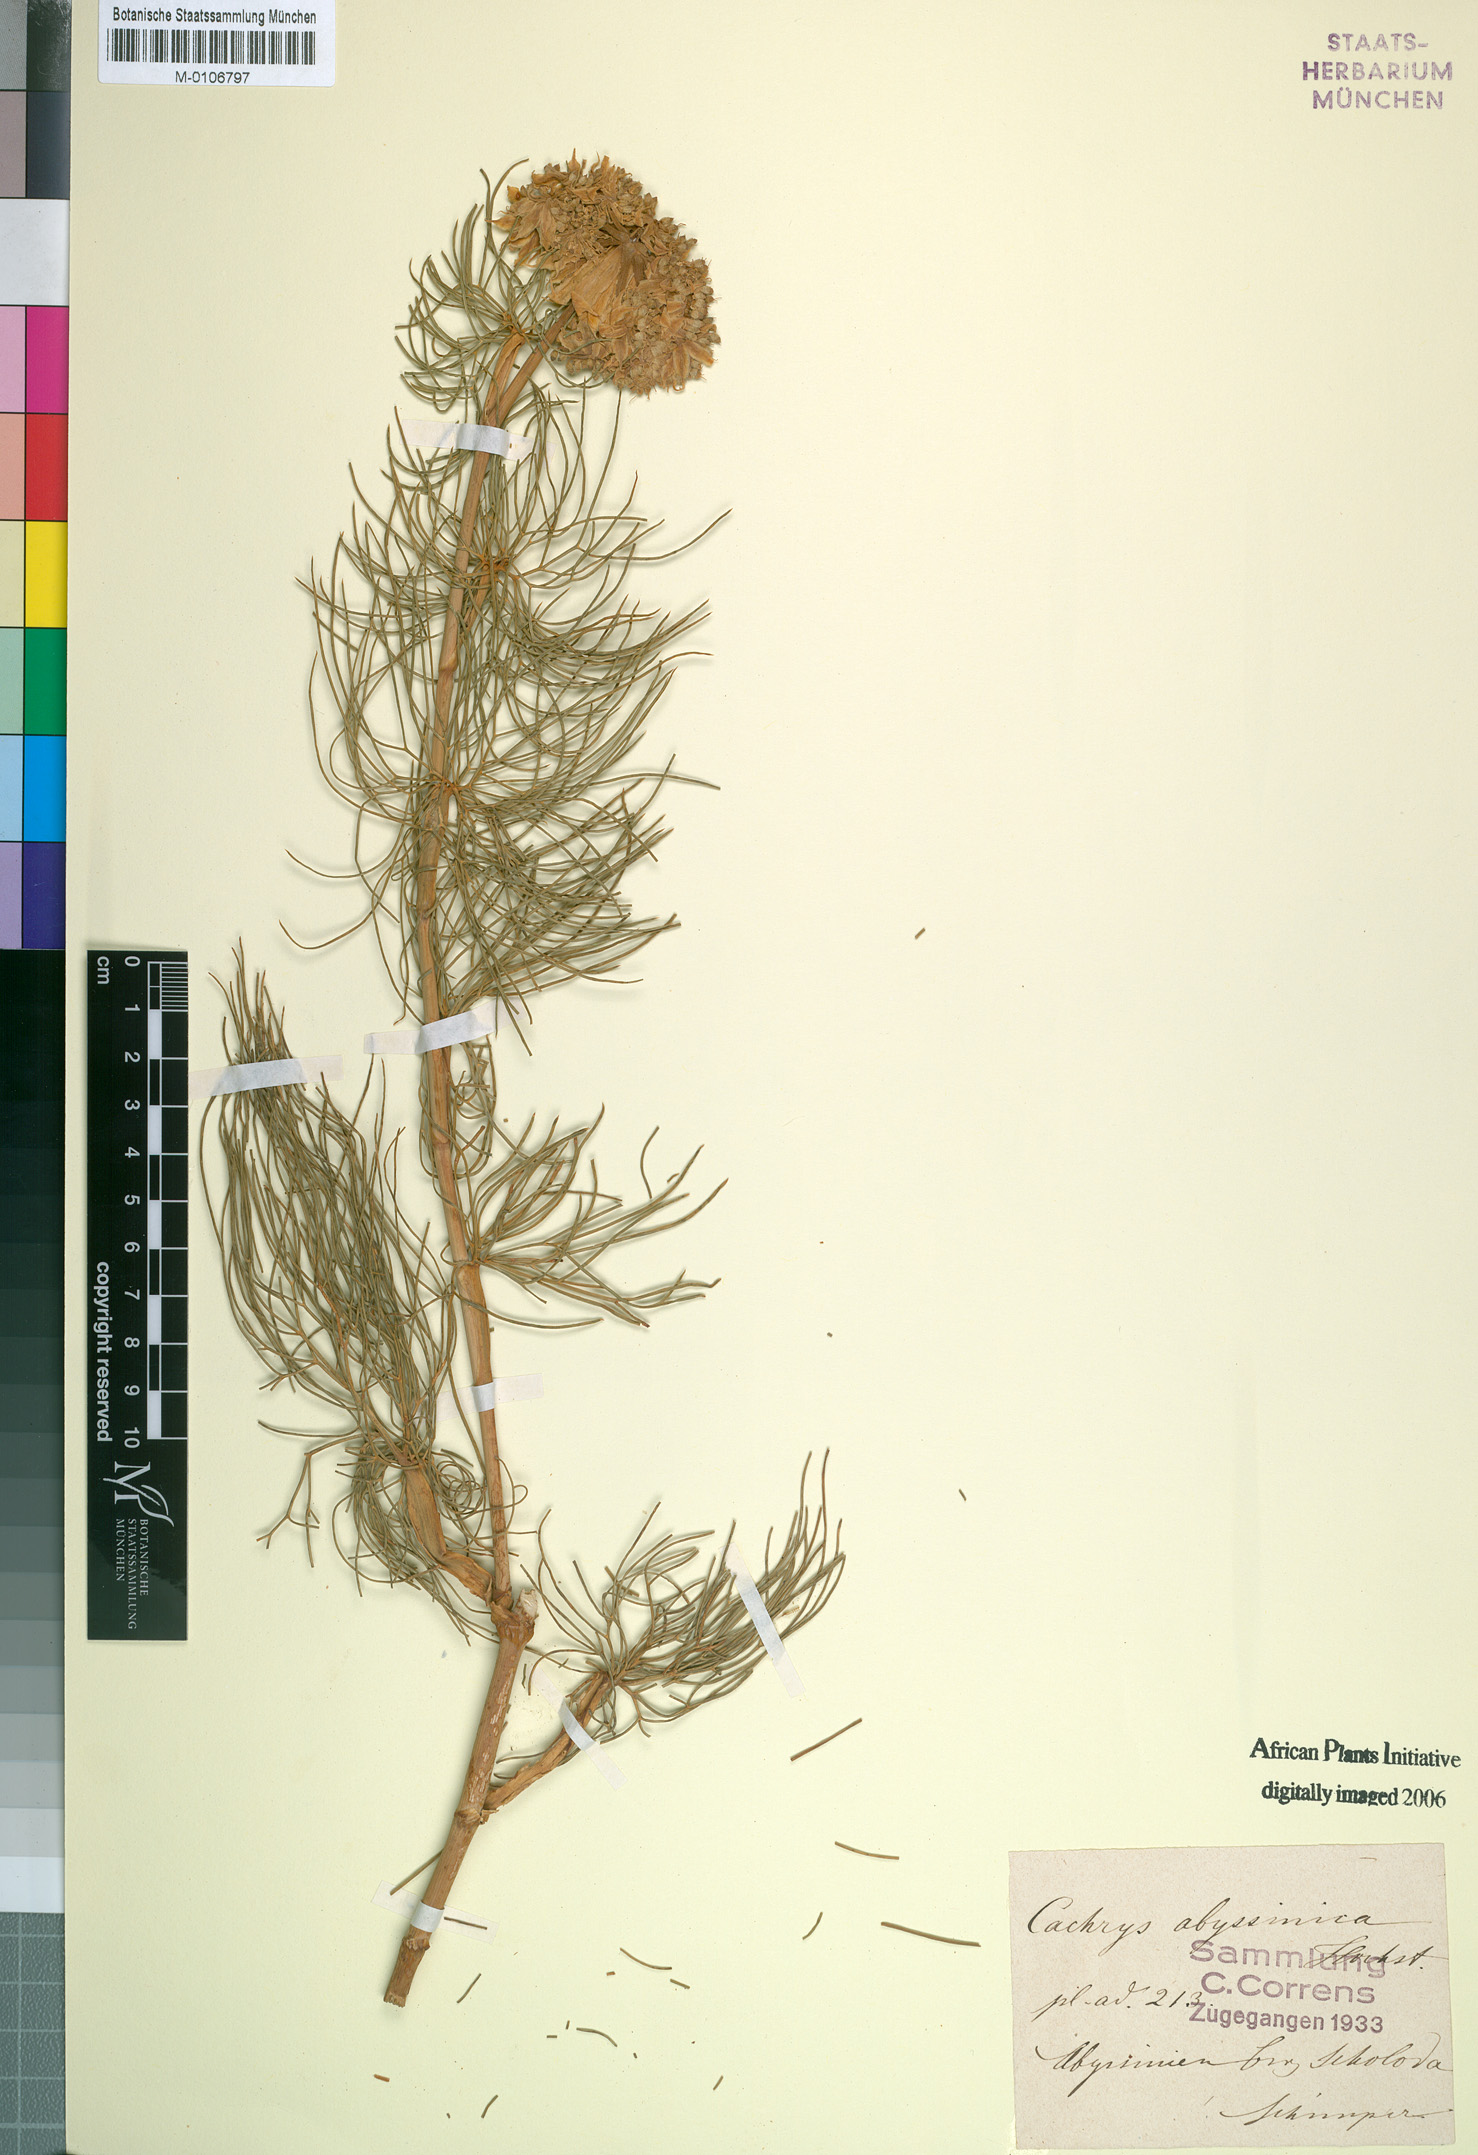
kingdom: Plantae
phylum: Tracheophyta
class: Magnoliopsida
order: Apiales
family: Apiaceae
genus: Diplolophium
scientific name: Diplolophium africanum
